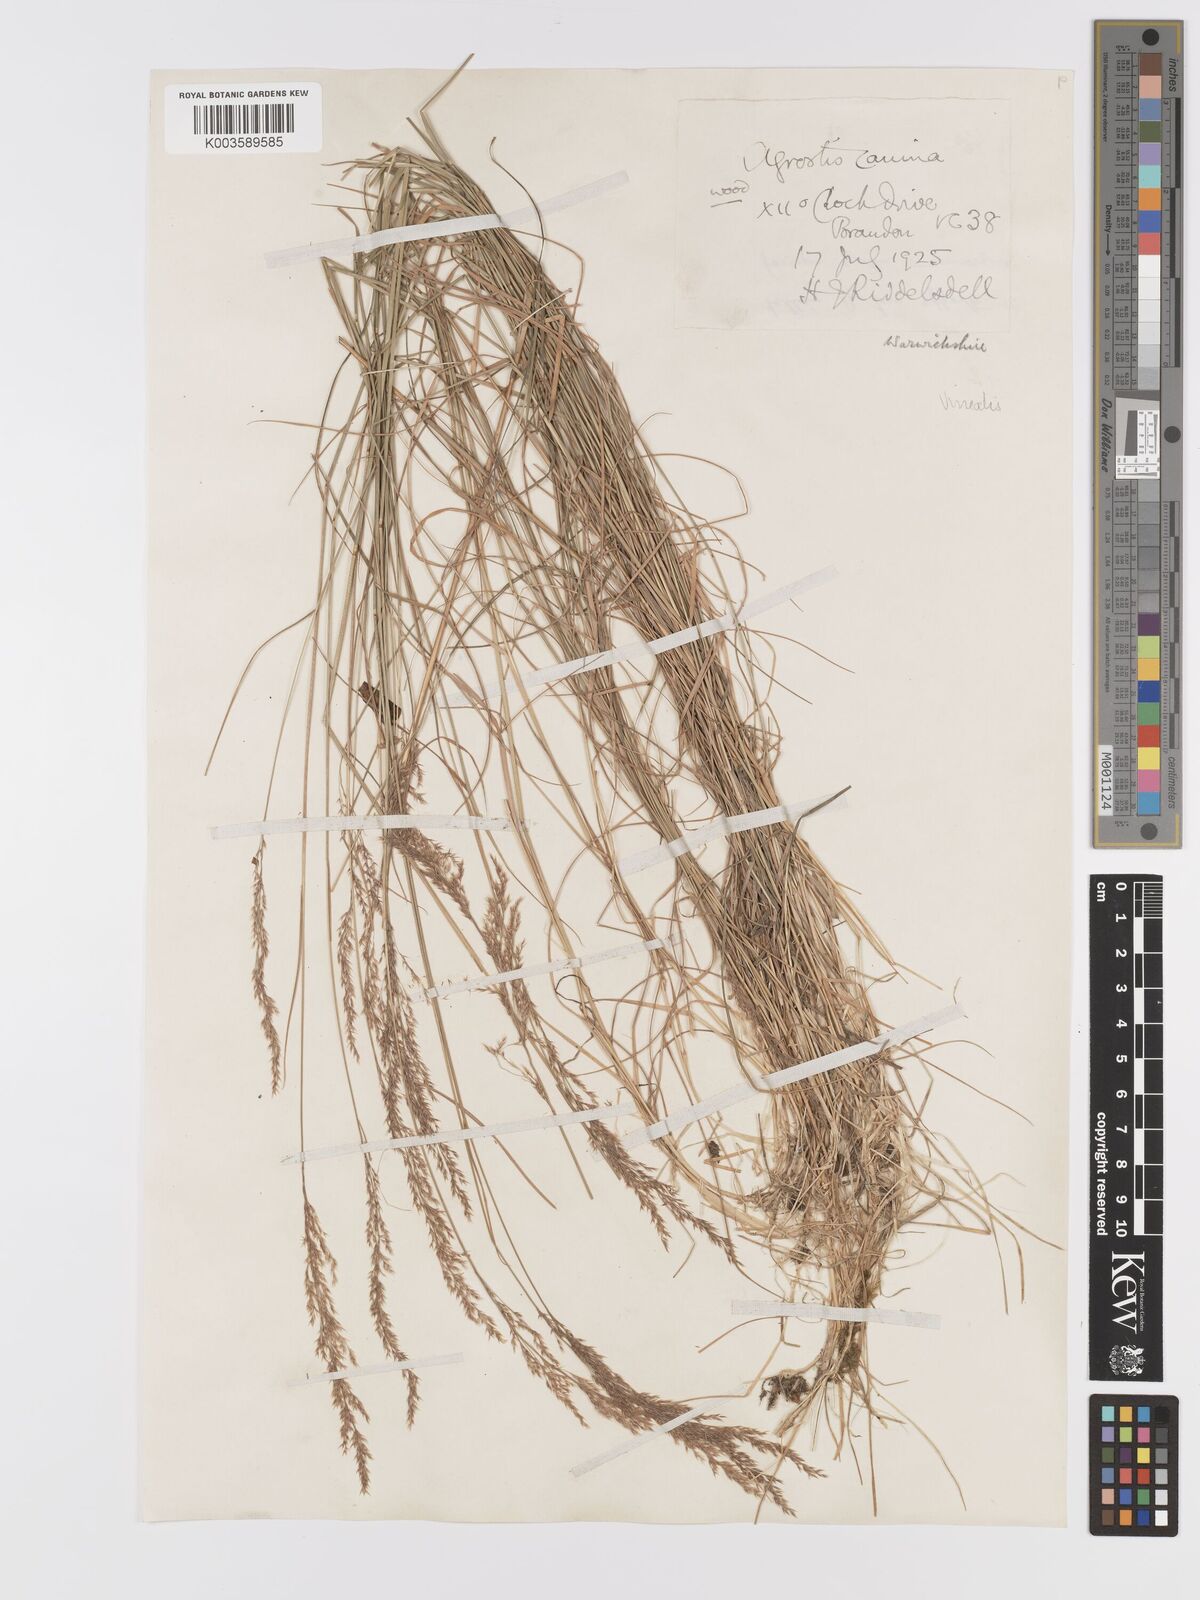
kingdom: Plantae
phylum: Tracheophyta
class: Liliopsida
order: Poales
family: Poaceae
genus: Agrostis
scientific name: Agrostis
